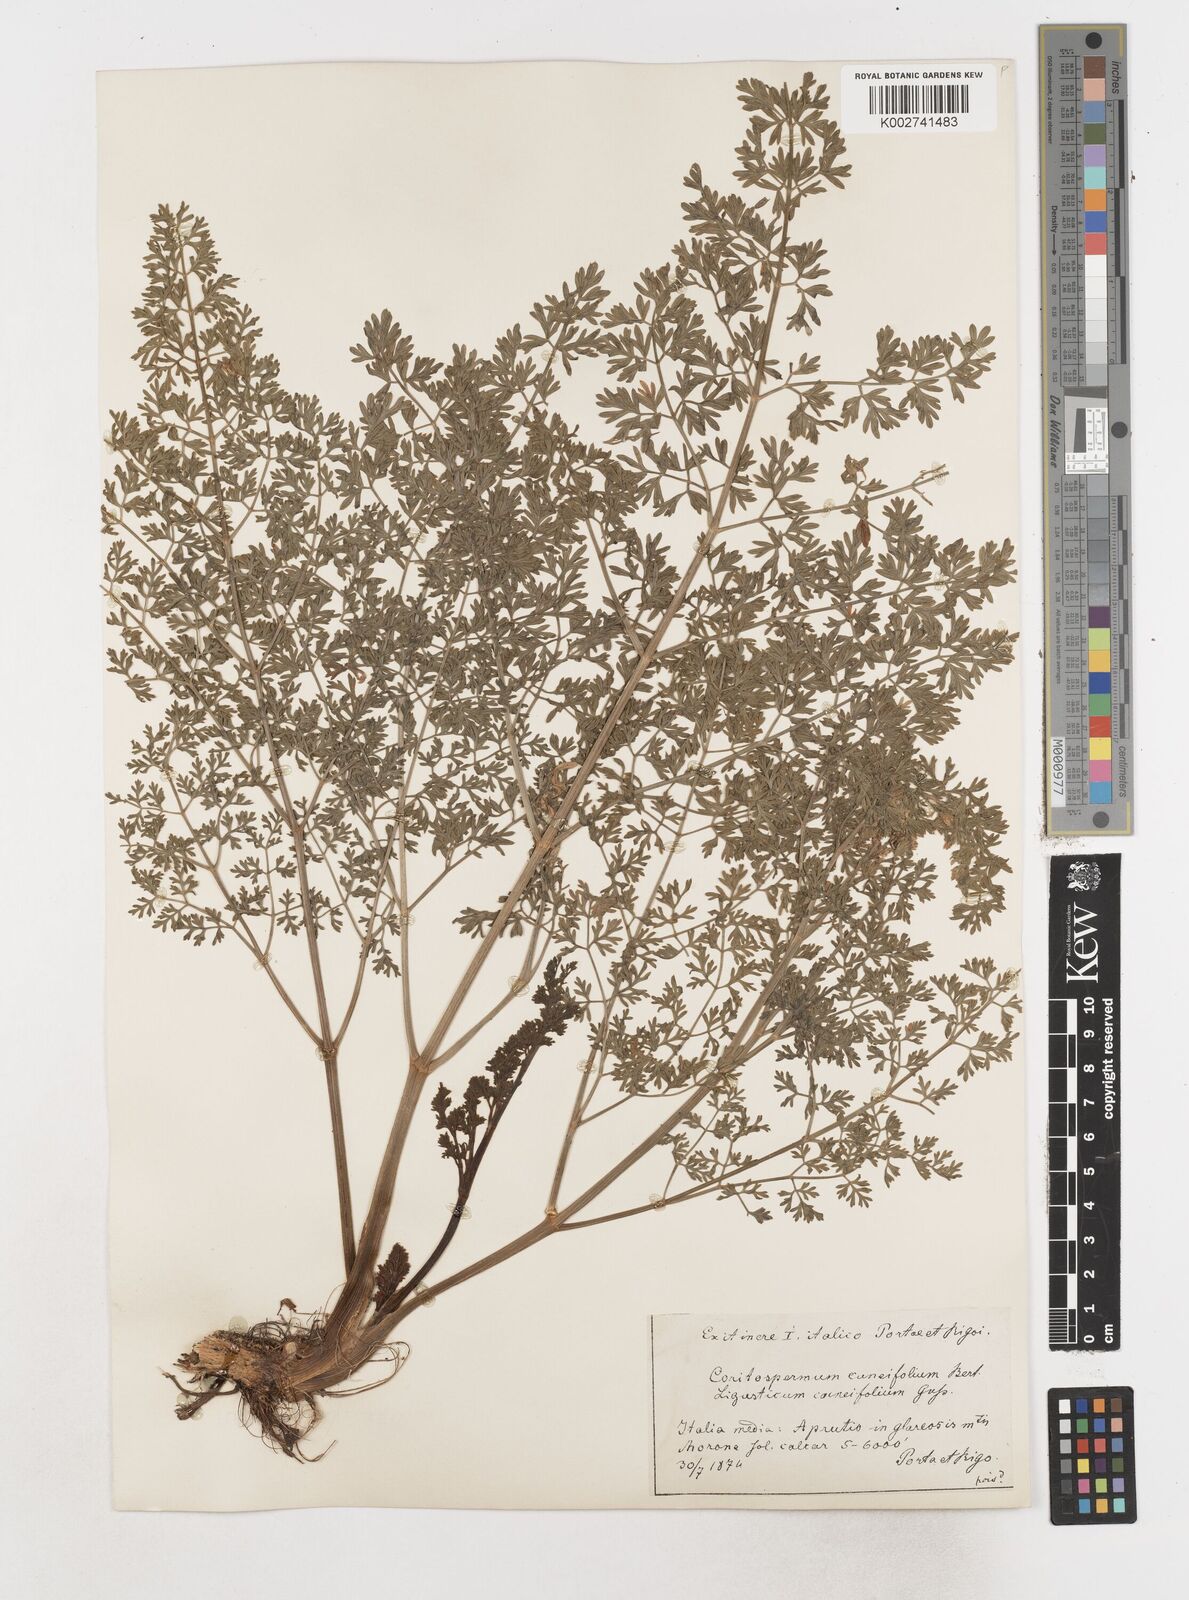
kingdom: Plantae
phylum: Tracheophyta
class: Magnoliopsida
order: Apiales
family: Apiaceae
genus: Coristospermum
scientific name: Coristospermum cuneifolium
